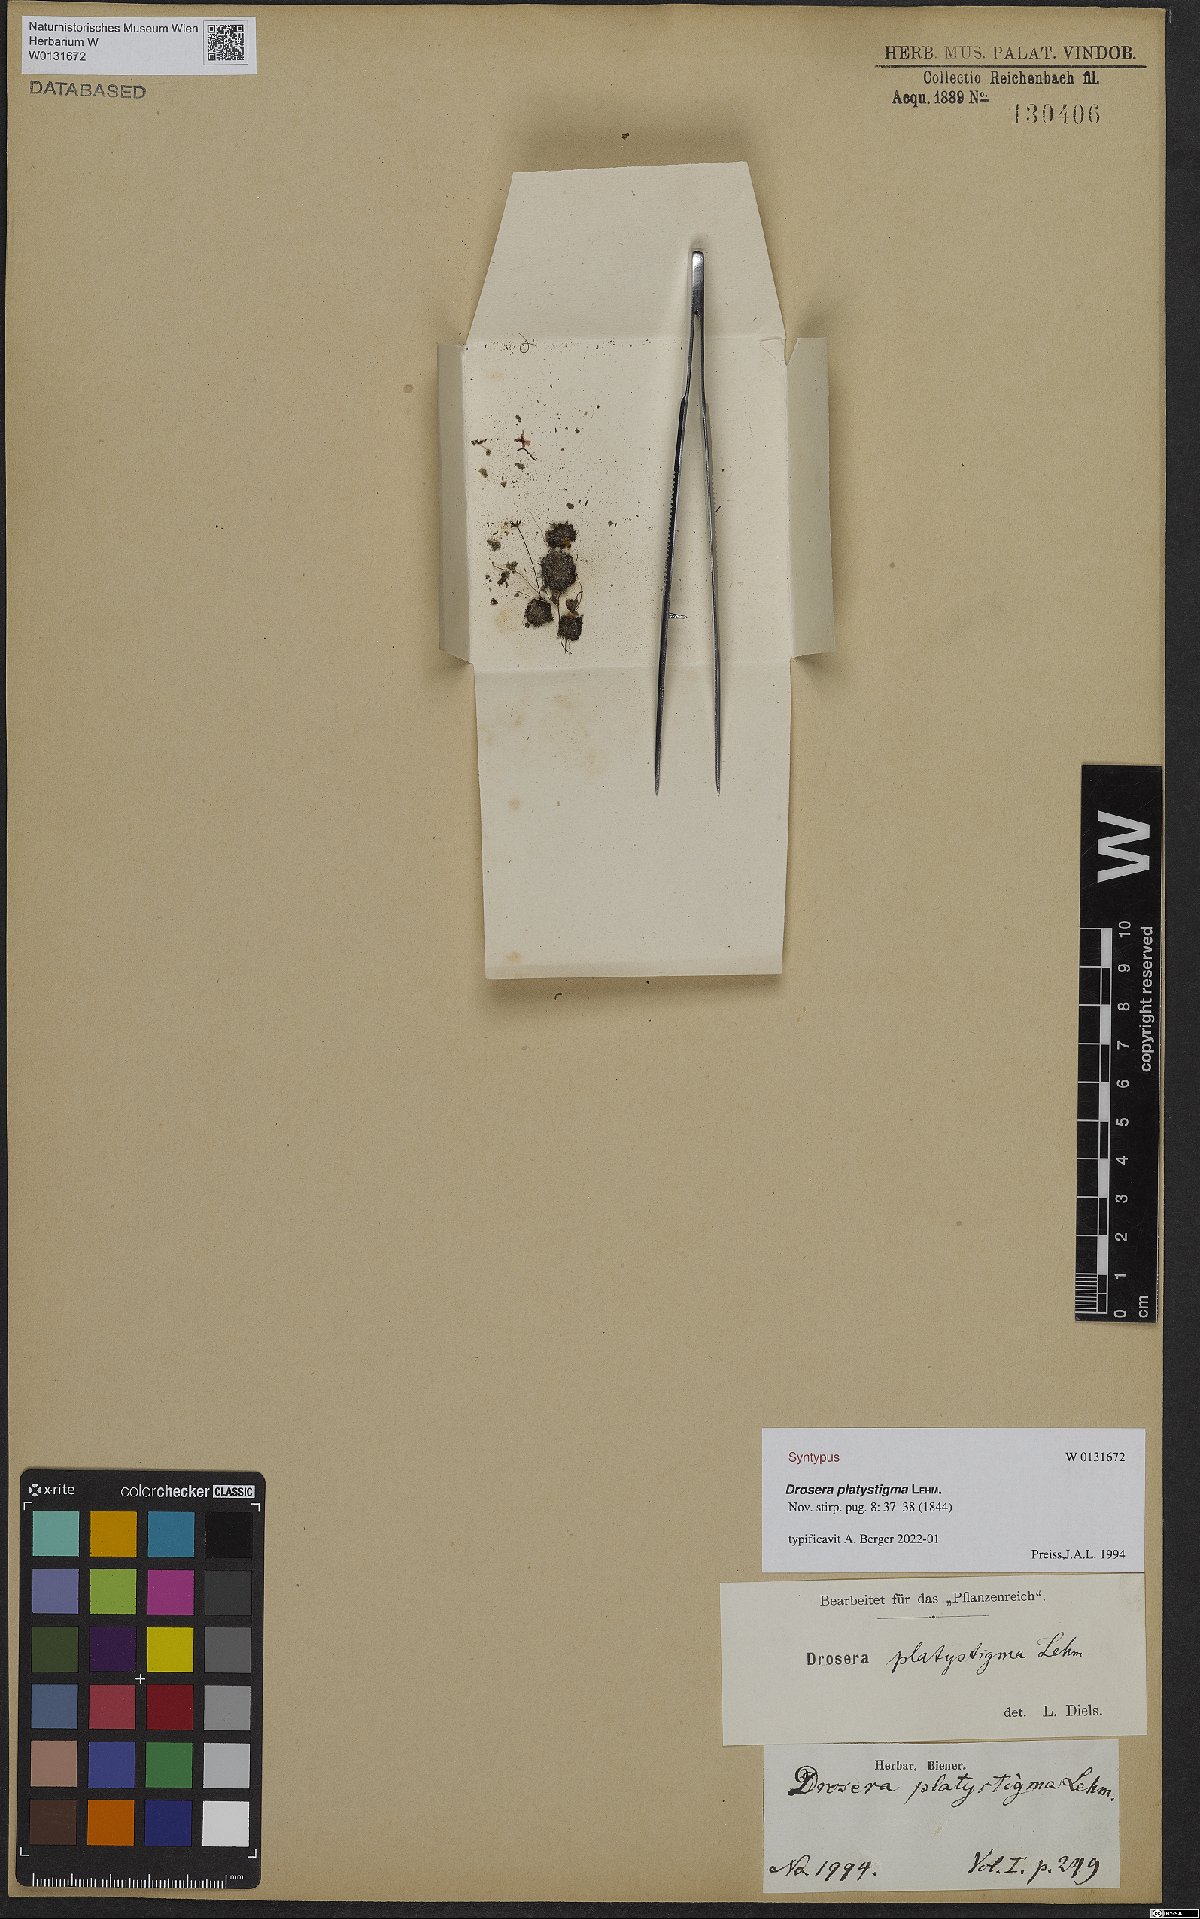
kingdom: Plantae
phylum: Tracheophyta
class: Magnoliopsida
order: Caryophyllales
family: Droseraceae
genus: Drosera
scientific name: Drosera platystigma
